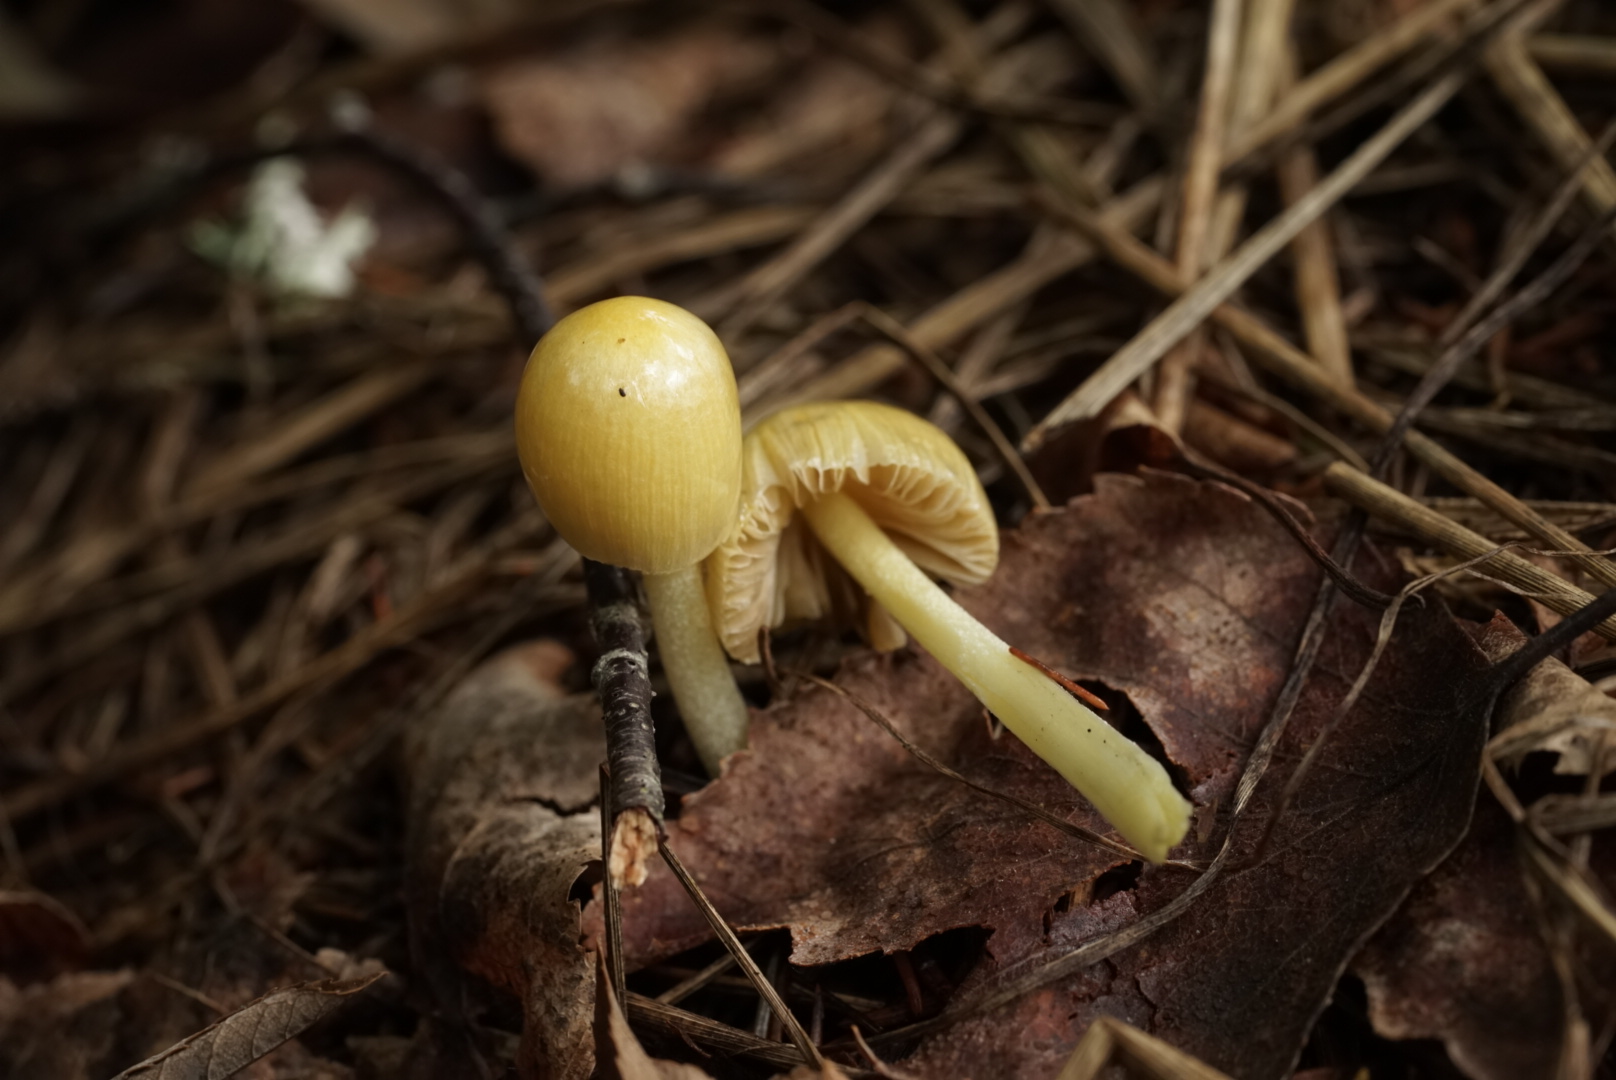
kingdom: Fungi
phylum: Basidiomycota
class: Agaricomycetes
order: Agaricales
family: Bolbitiaceae
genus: Bolbitius
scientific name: Bolbitius titubans
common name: Yellow fieldcap
